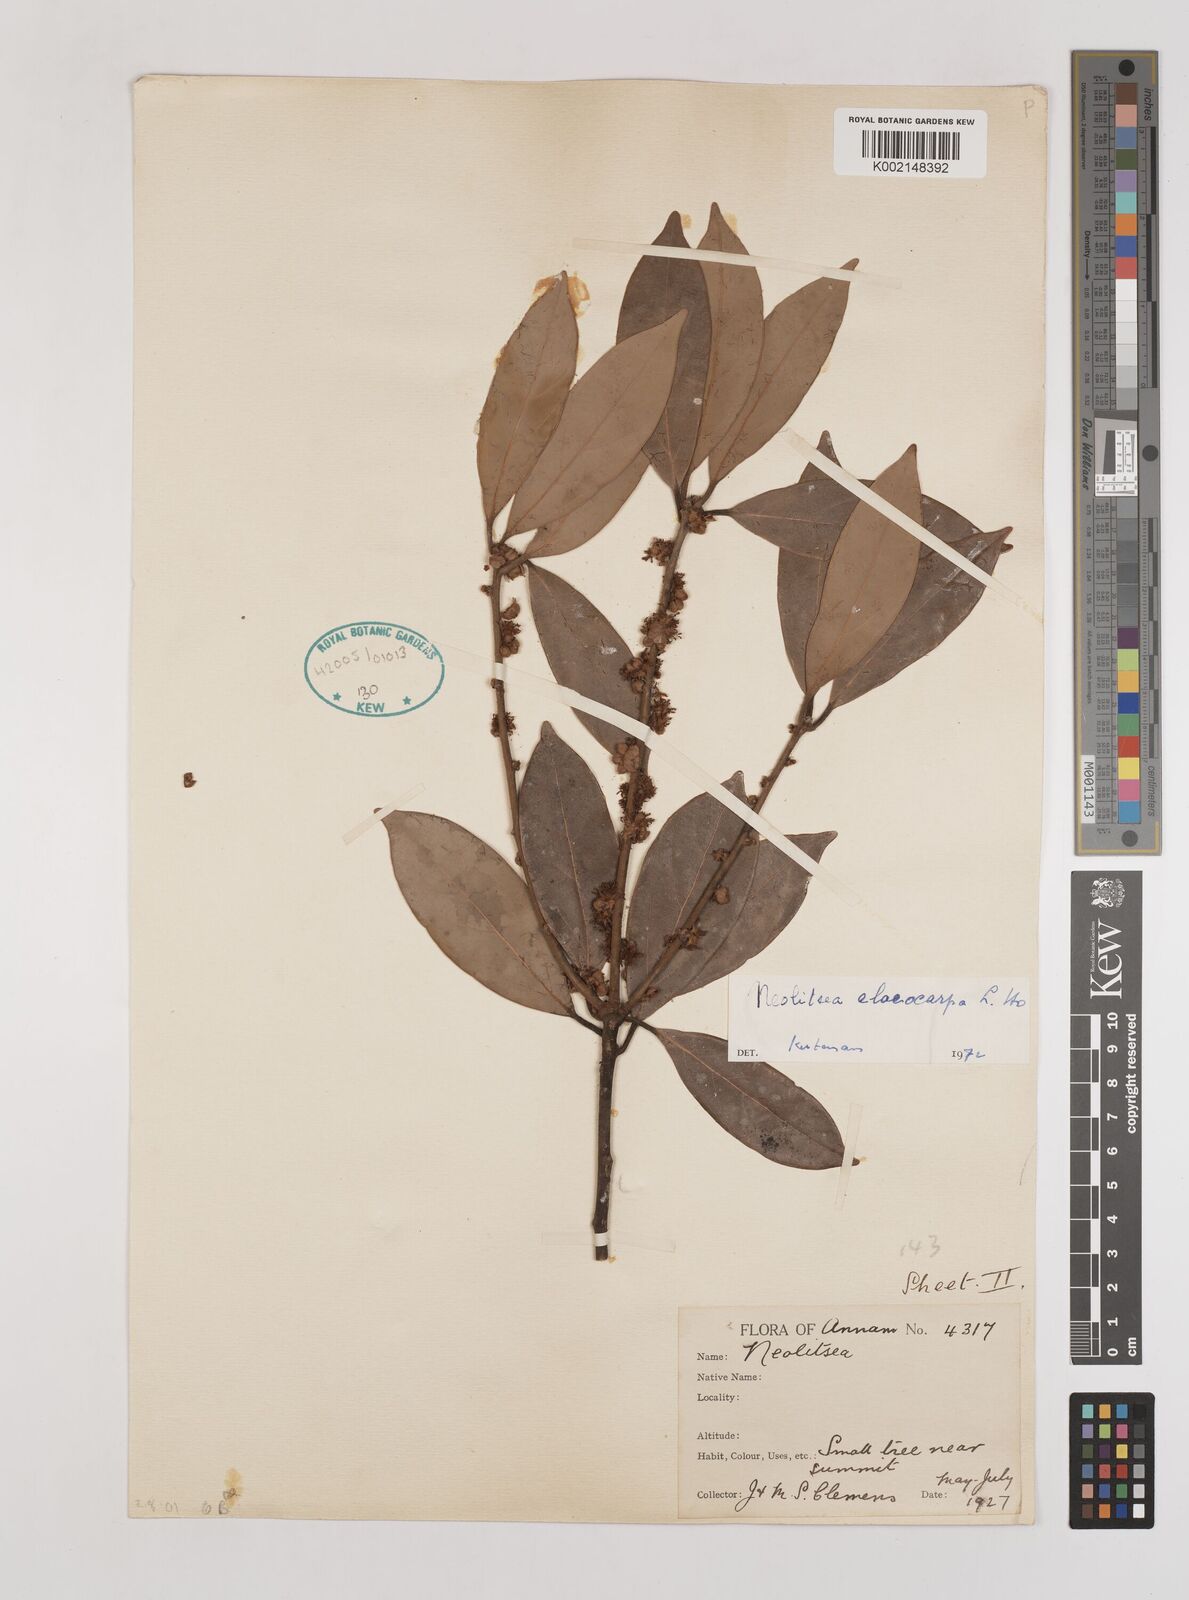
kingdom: Plantae
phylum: Tracheophyta
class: Magnoliopsida
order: Laurales
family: Lauraceae
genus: Neolitsea
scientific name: Neolitsea elaeocarpa
